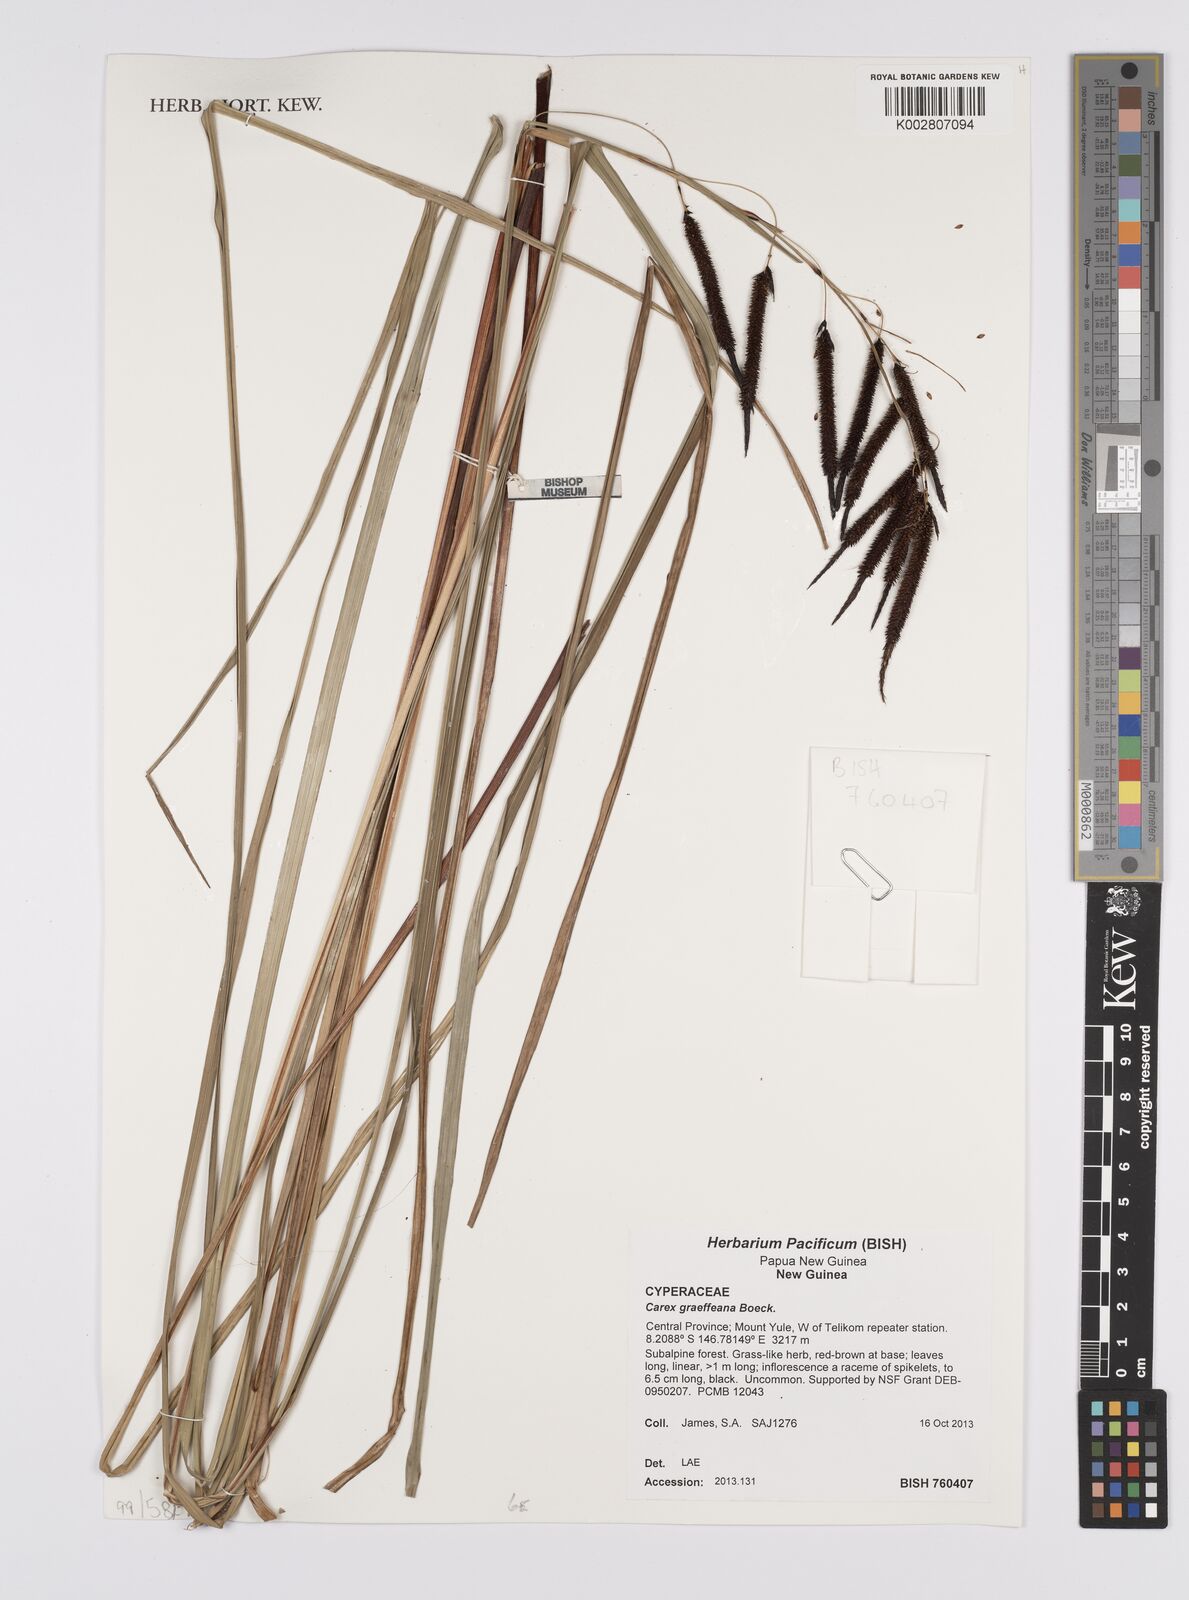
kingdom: Plantae
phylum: Tracheophyta
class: Liliopsida
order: Poales
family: Cyperaceae
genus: Carex
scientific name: Carex graeffeana
